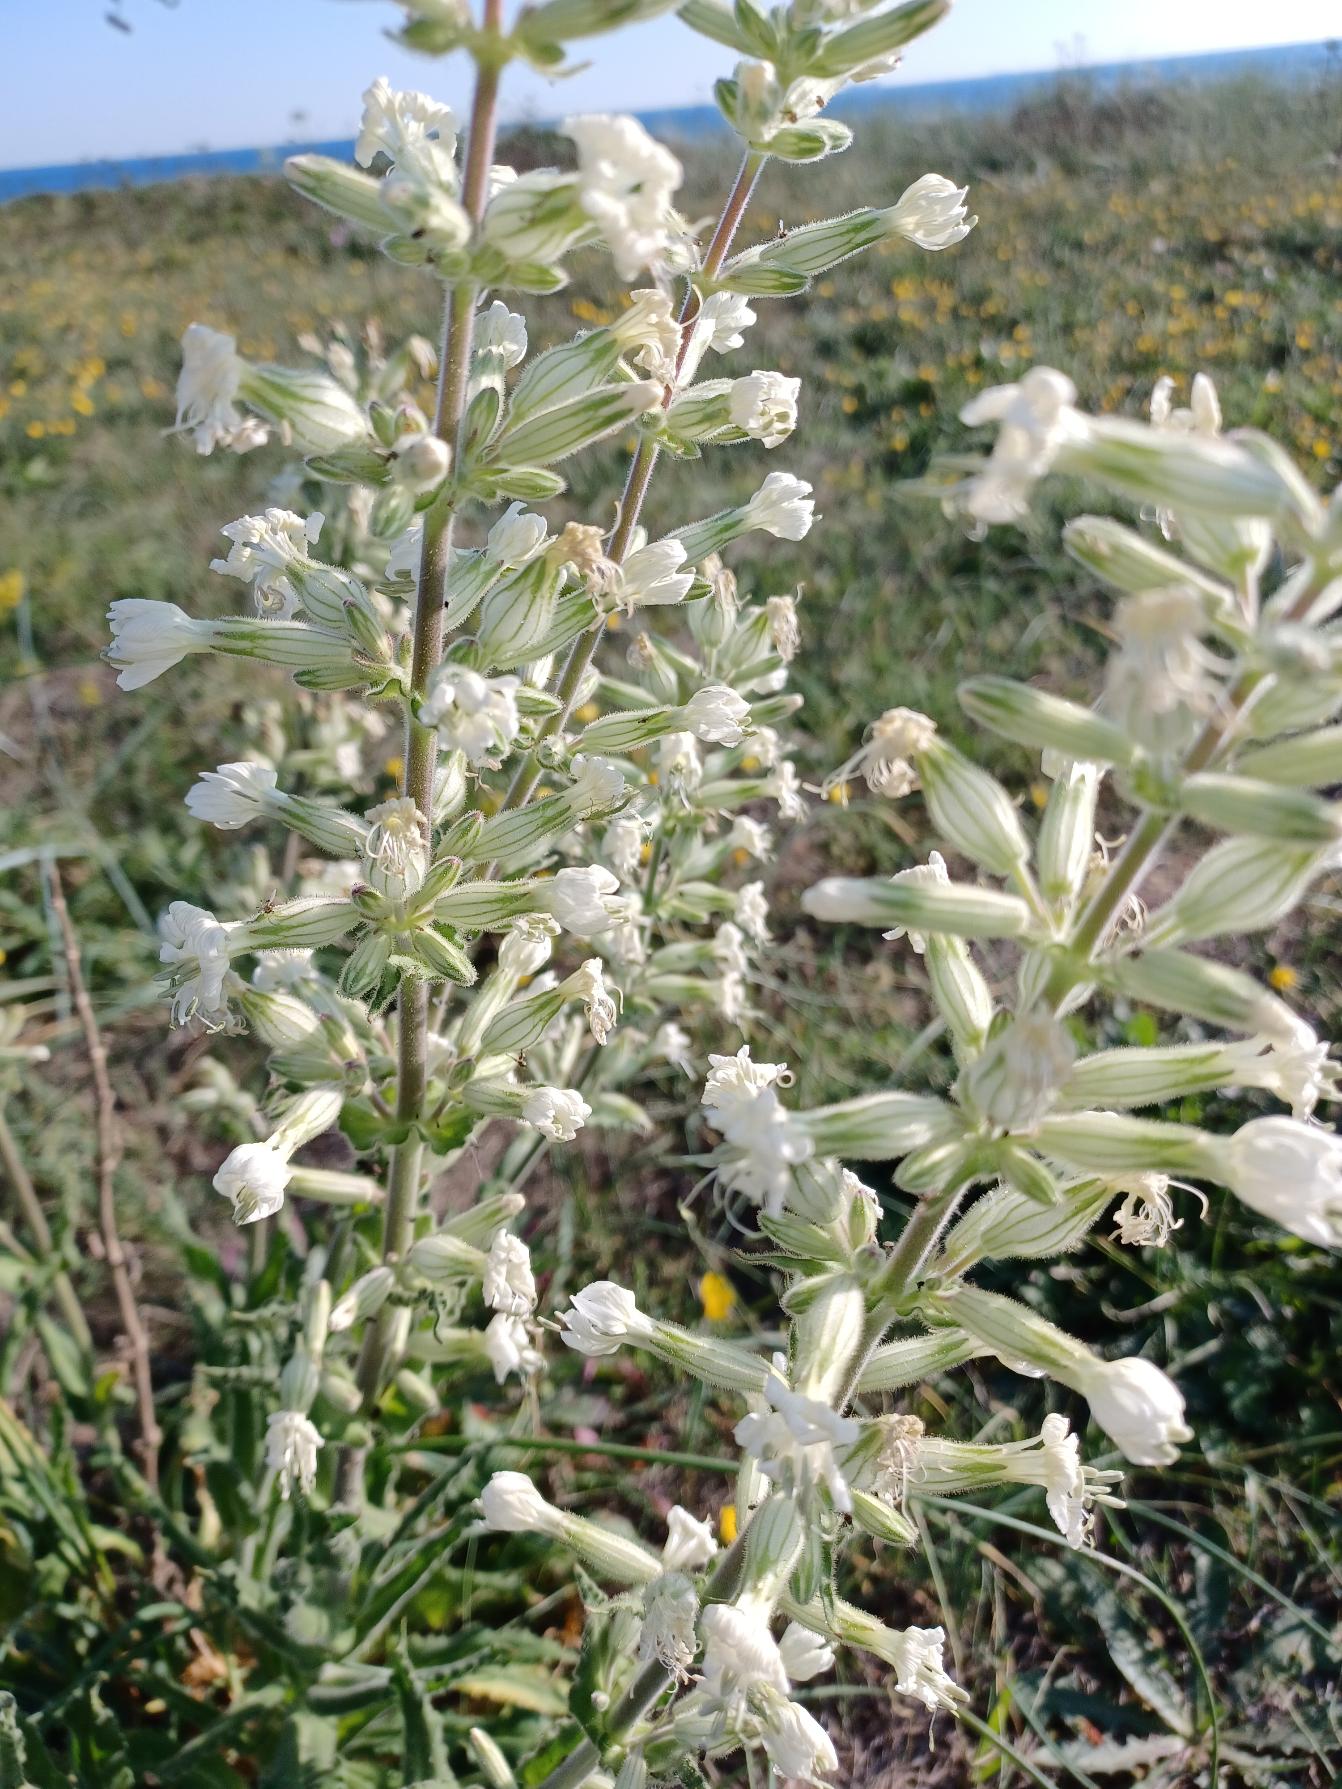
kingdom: Plantae
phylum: Tracheophyta
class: Magnoliopsida
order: Caryophyllales
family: Caryophyllaceae
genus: Silene
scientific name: Silene viscosa
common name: Klæbrig limurt
